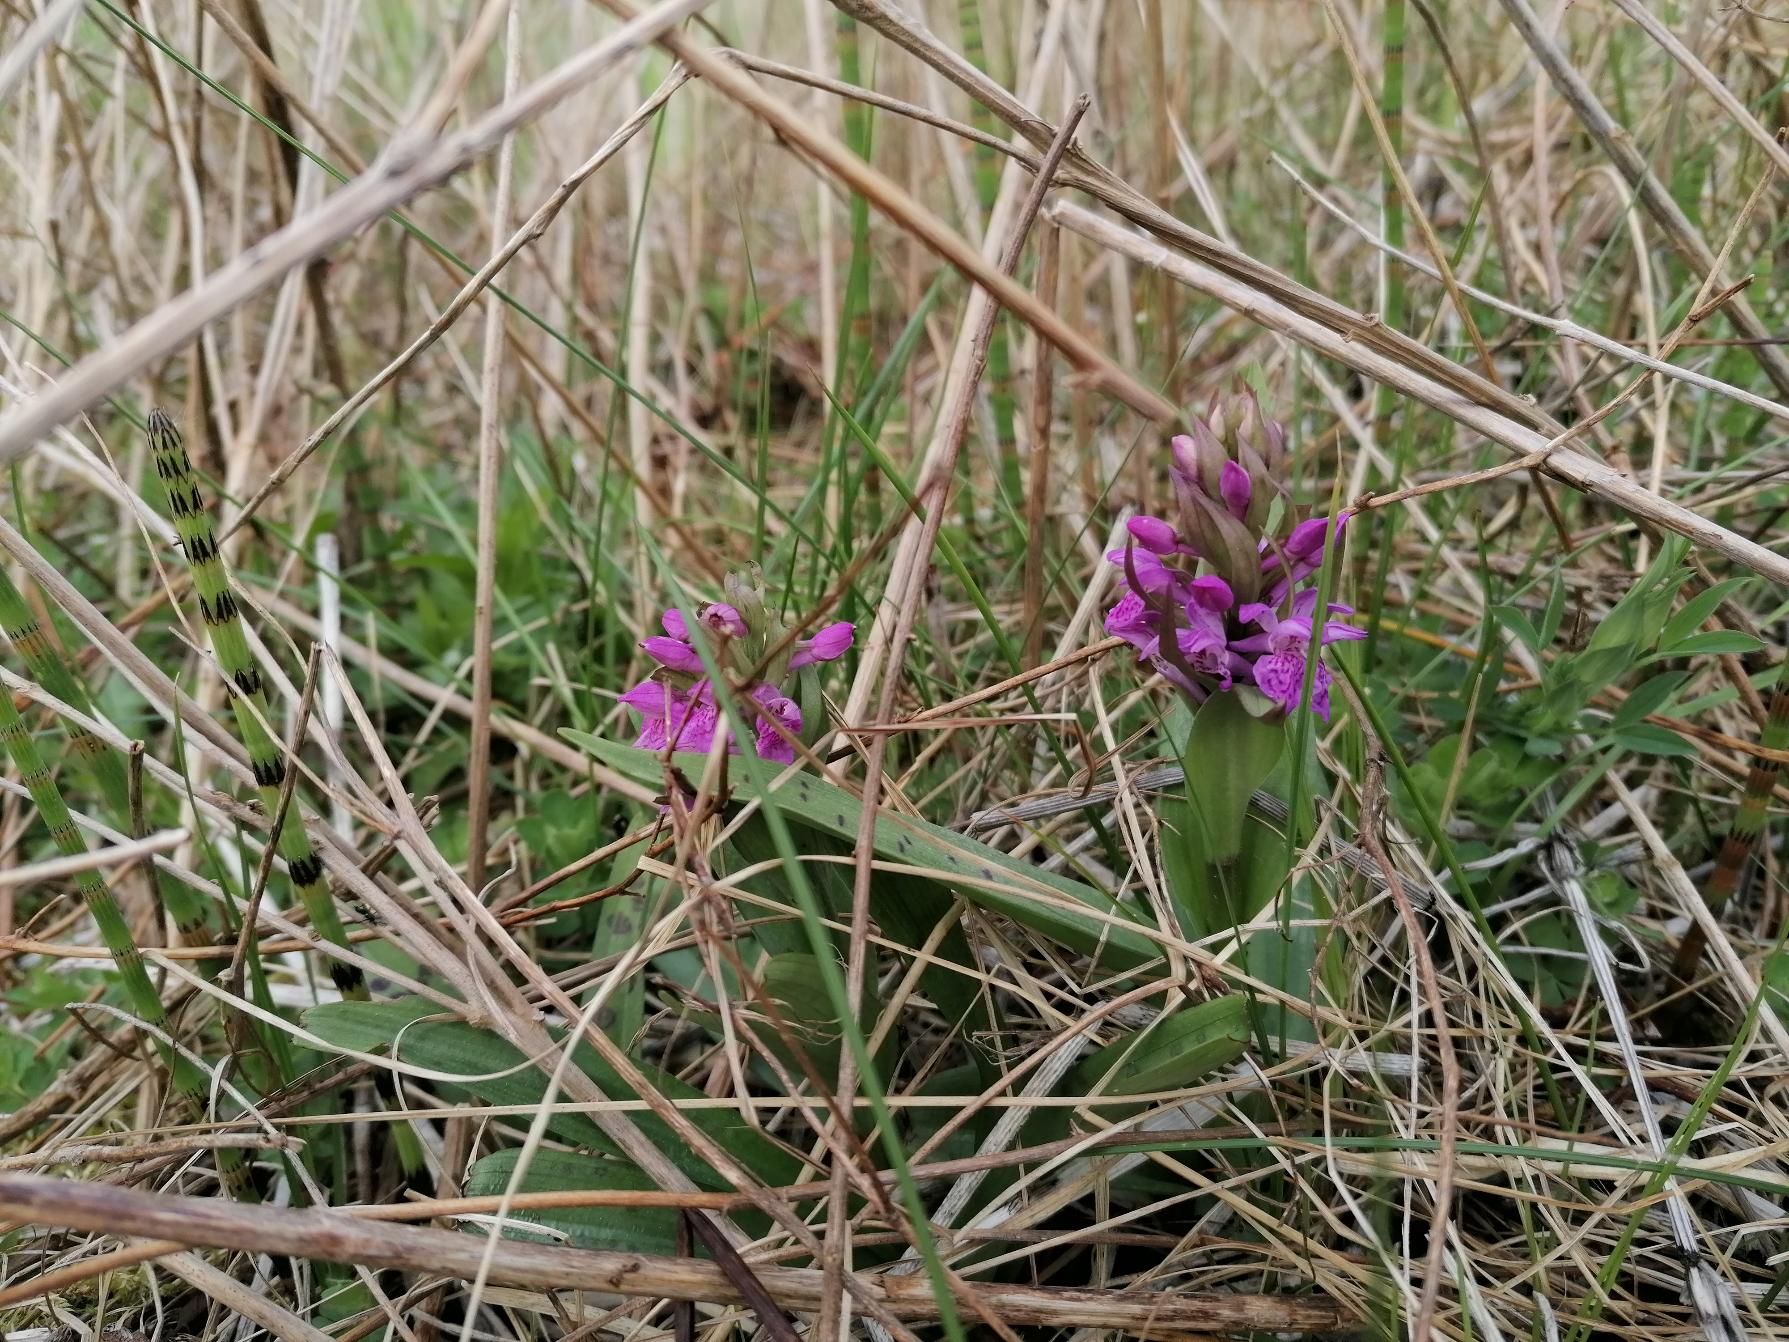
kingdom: Plantae
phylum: Tracheophyta
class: Liliopsida
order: Asparagales
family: Orchidaceae
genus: Dactylorhiza
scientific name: Dactylorhiza majalis
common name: Maj-gøgeurt
